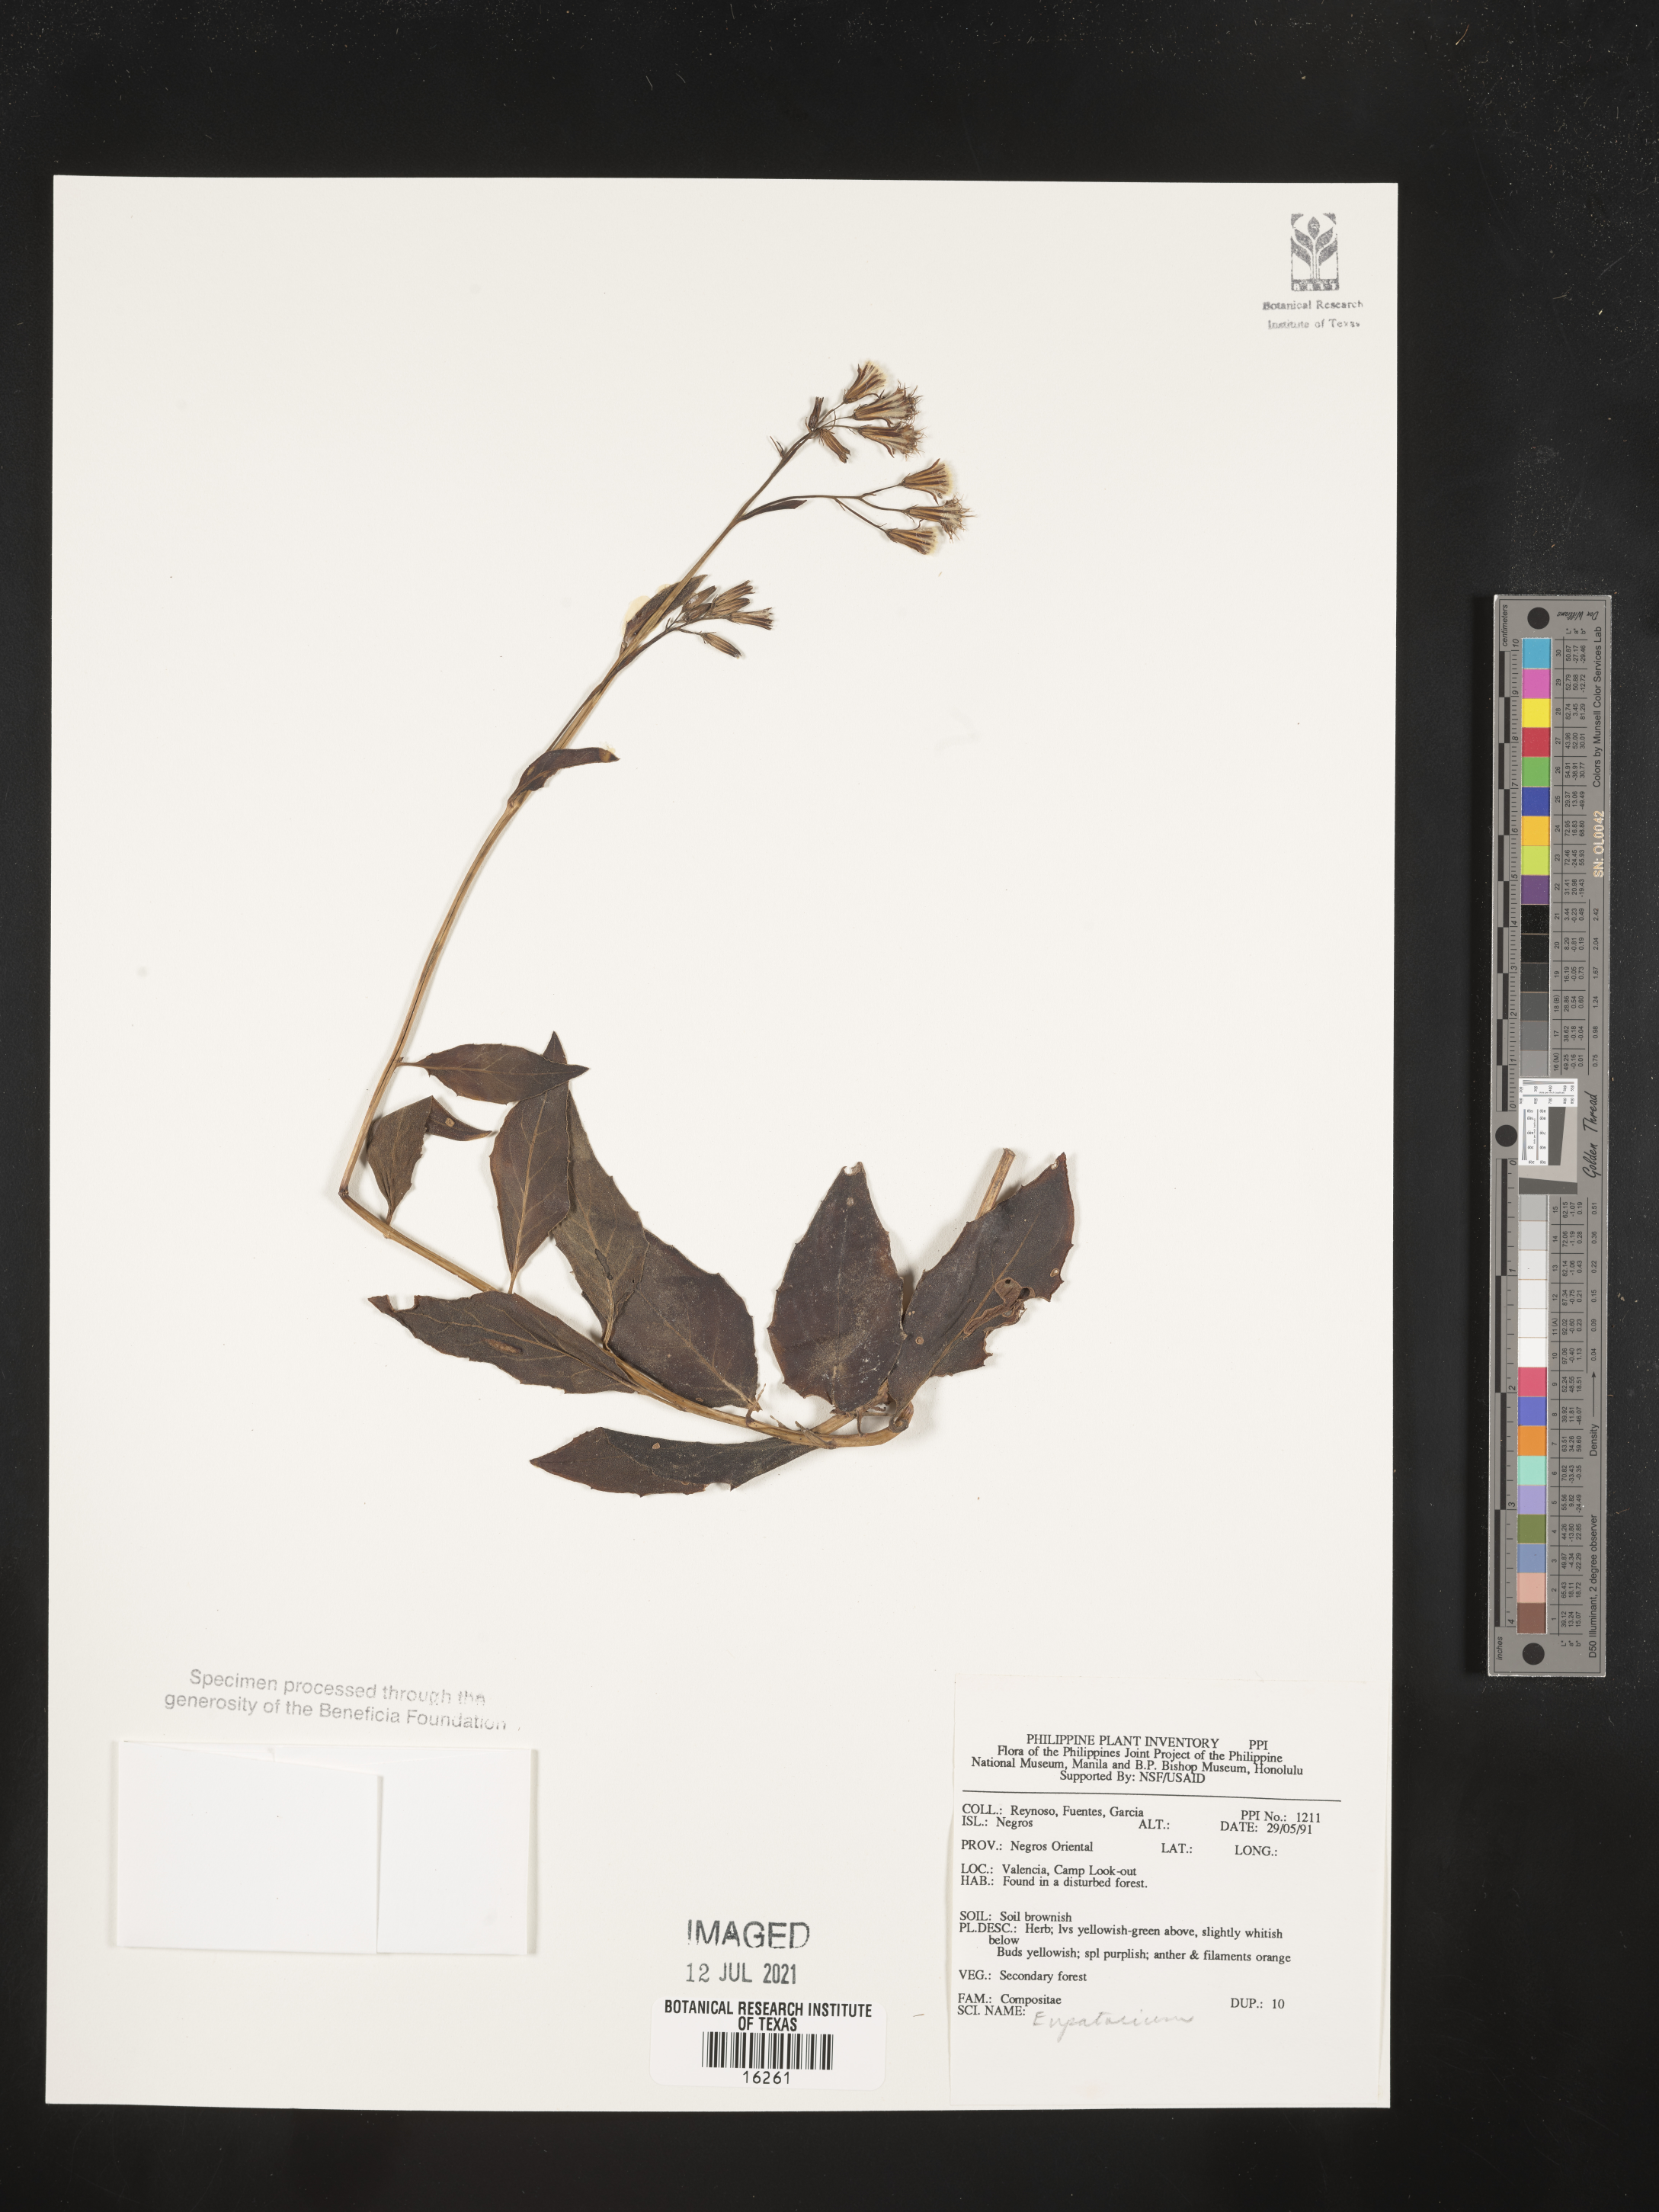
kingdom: Plantae
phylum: Tracheophyta
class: Magnoliopsida
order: Asterales
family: Asteraceae
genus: Eupatorium
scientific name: Eupatorium
